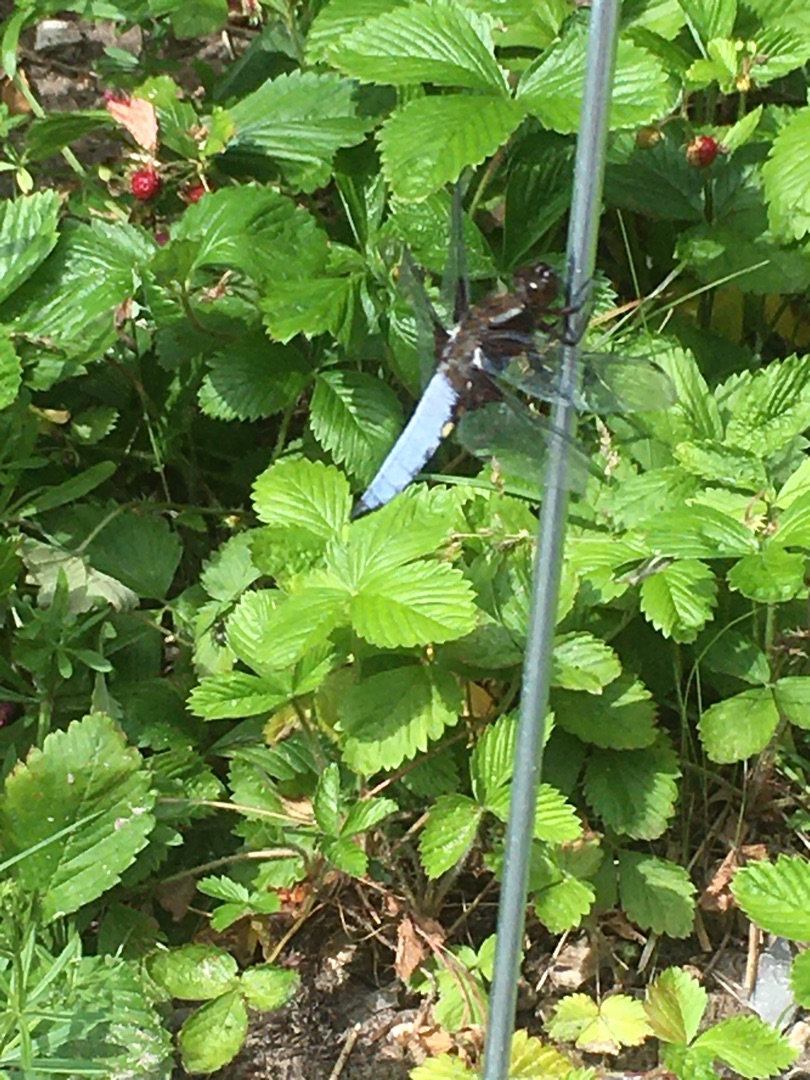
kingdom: Animalia
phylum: Arthropoda
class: Insecta
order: Odonata
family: Libellulidae
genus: Libellula
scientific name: Libellula depressa
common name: Blå libel
